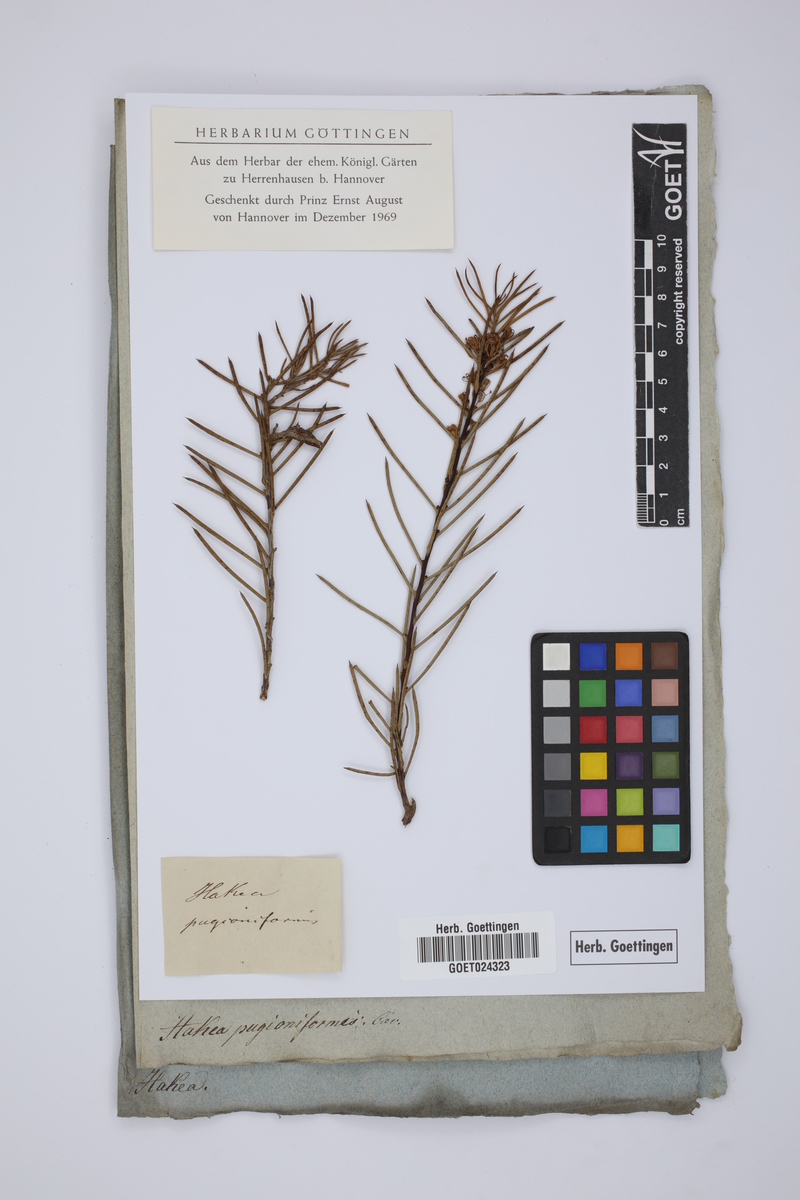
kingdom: Plantae
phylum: Tracheophyta
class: Magnoliopsida
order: Proteales
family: Proteaceae
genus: Hakea
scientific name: Hakea teretifolia
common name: Dagger hakea
